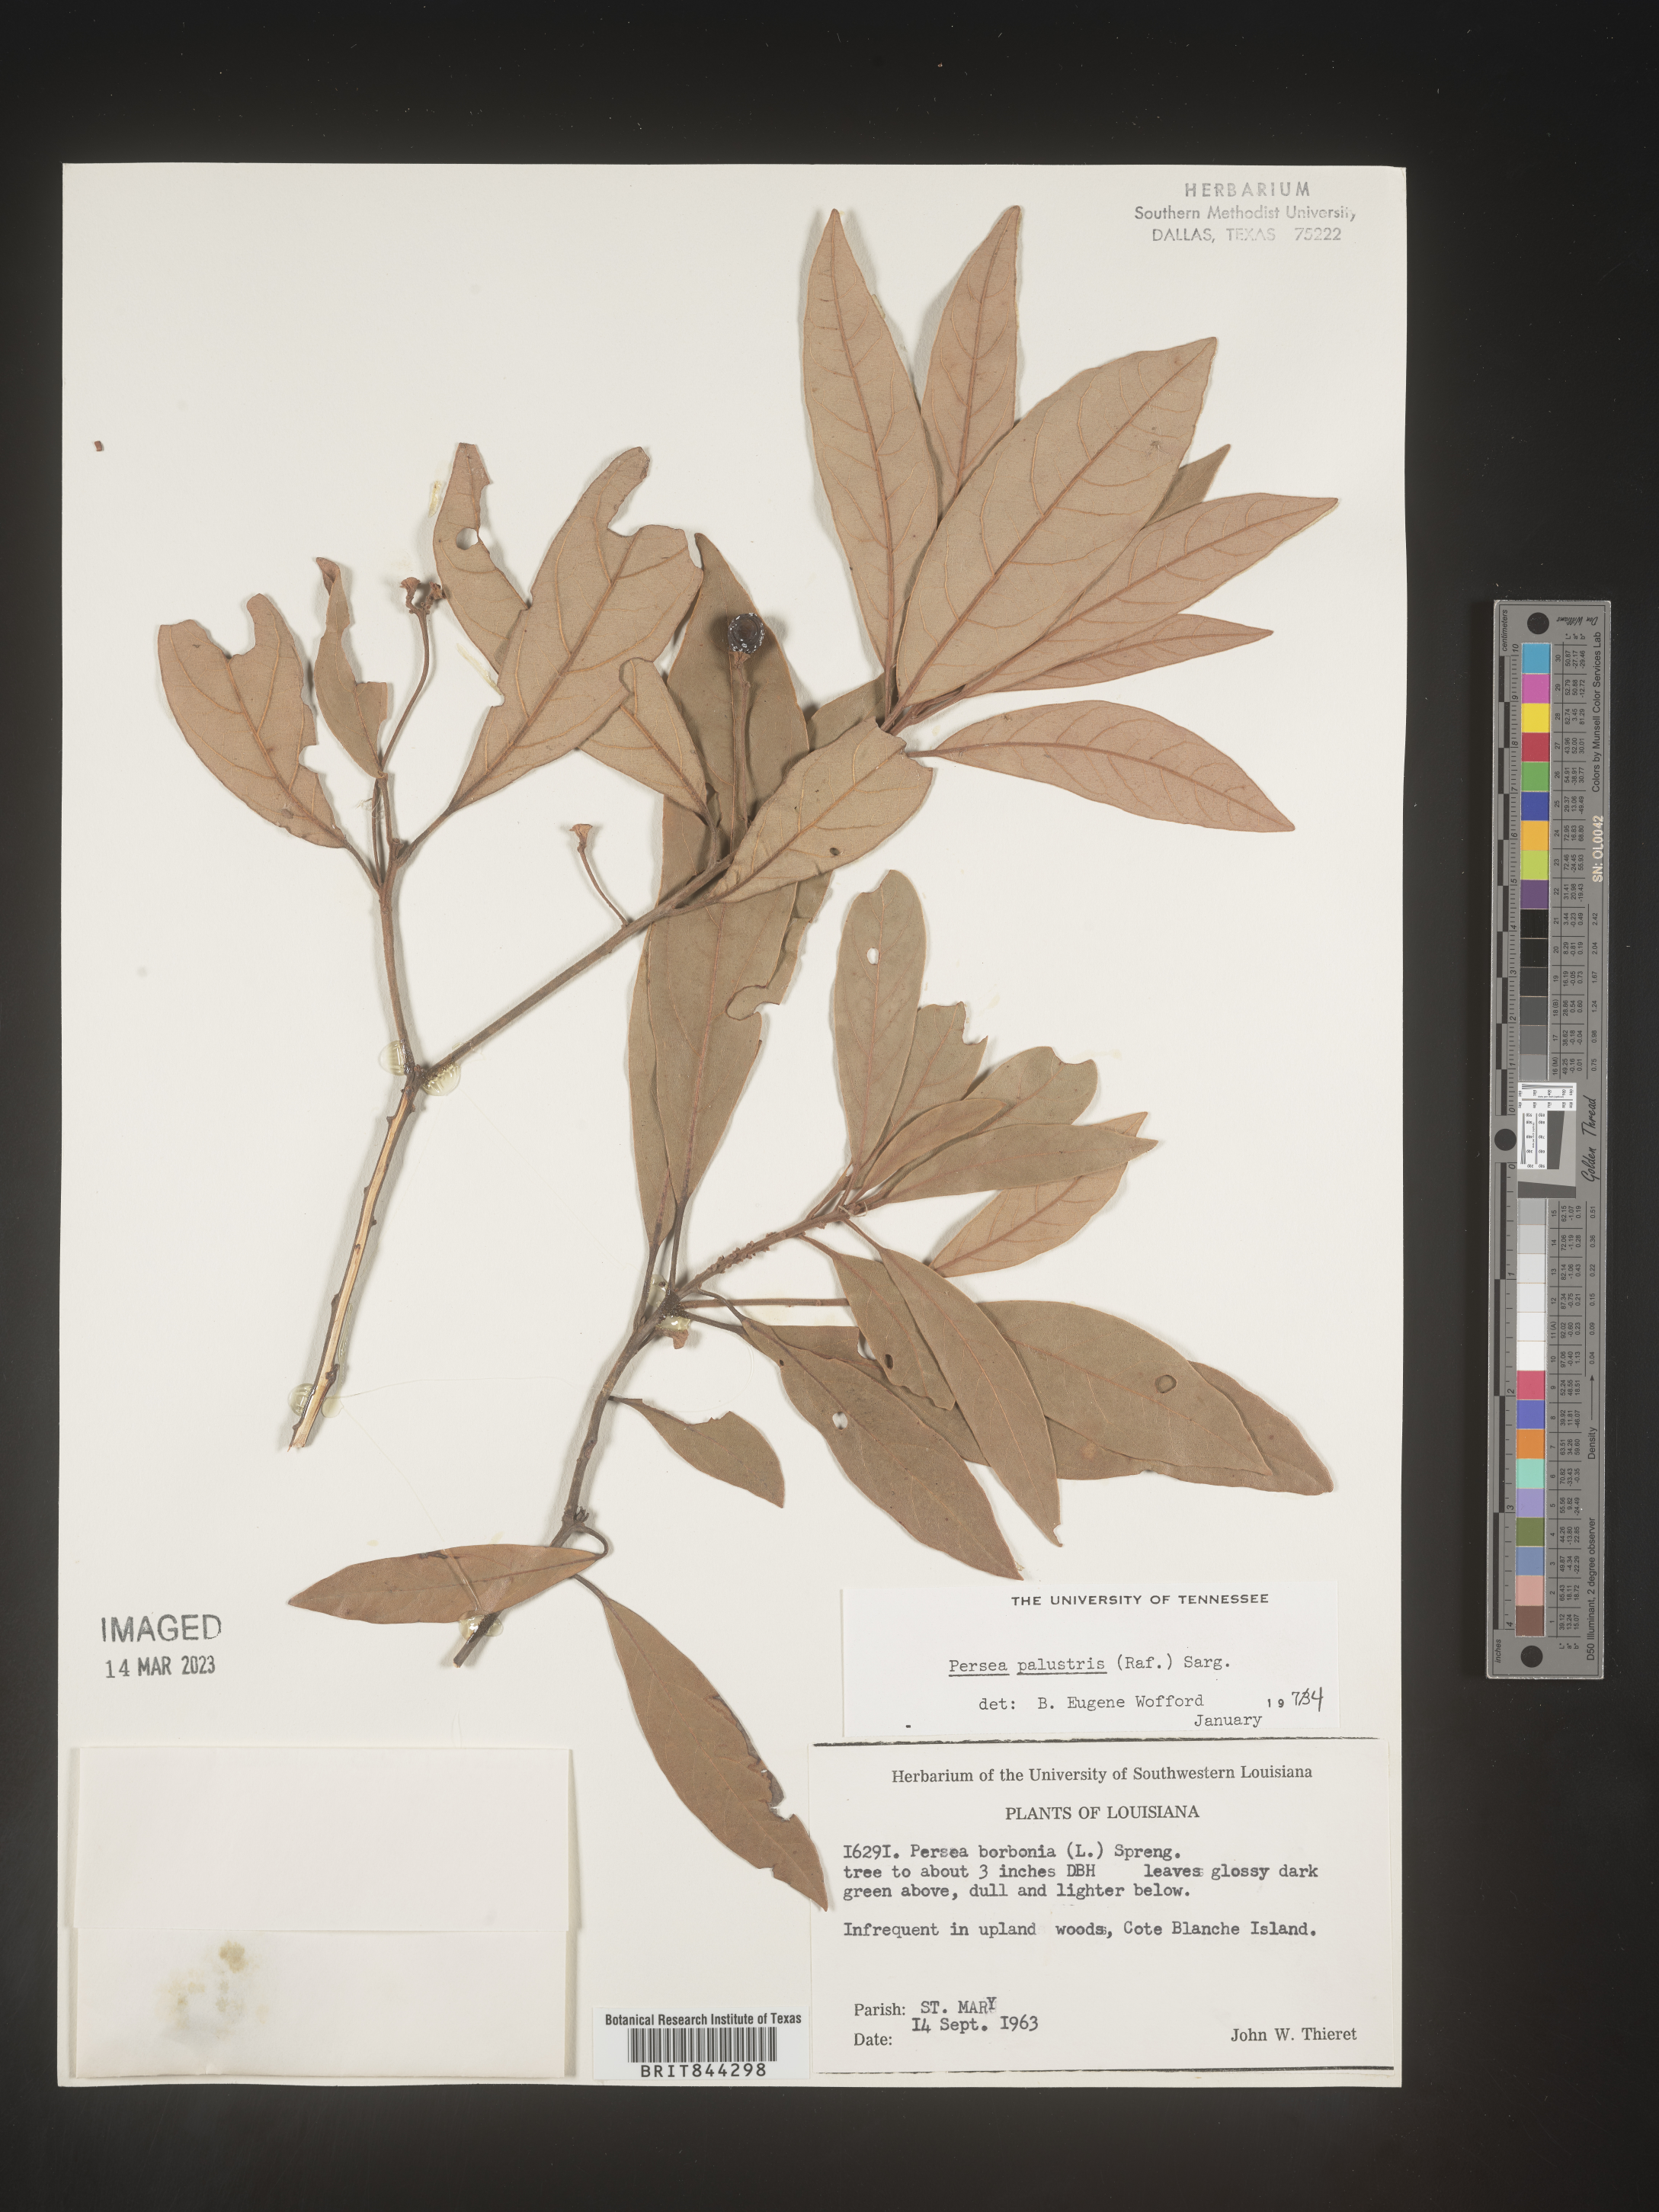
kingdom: Plantae
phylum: Tracheophyta
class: Magnoliopsida
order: Laurales
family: Lauraceae
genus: Persea
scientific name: Persea palustris
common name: Swampbay
